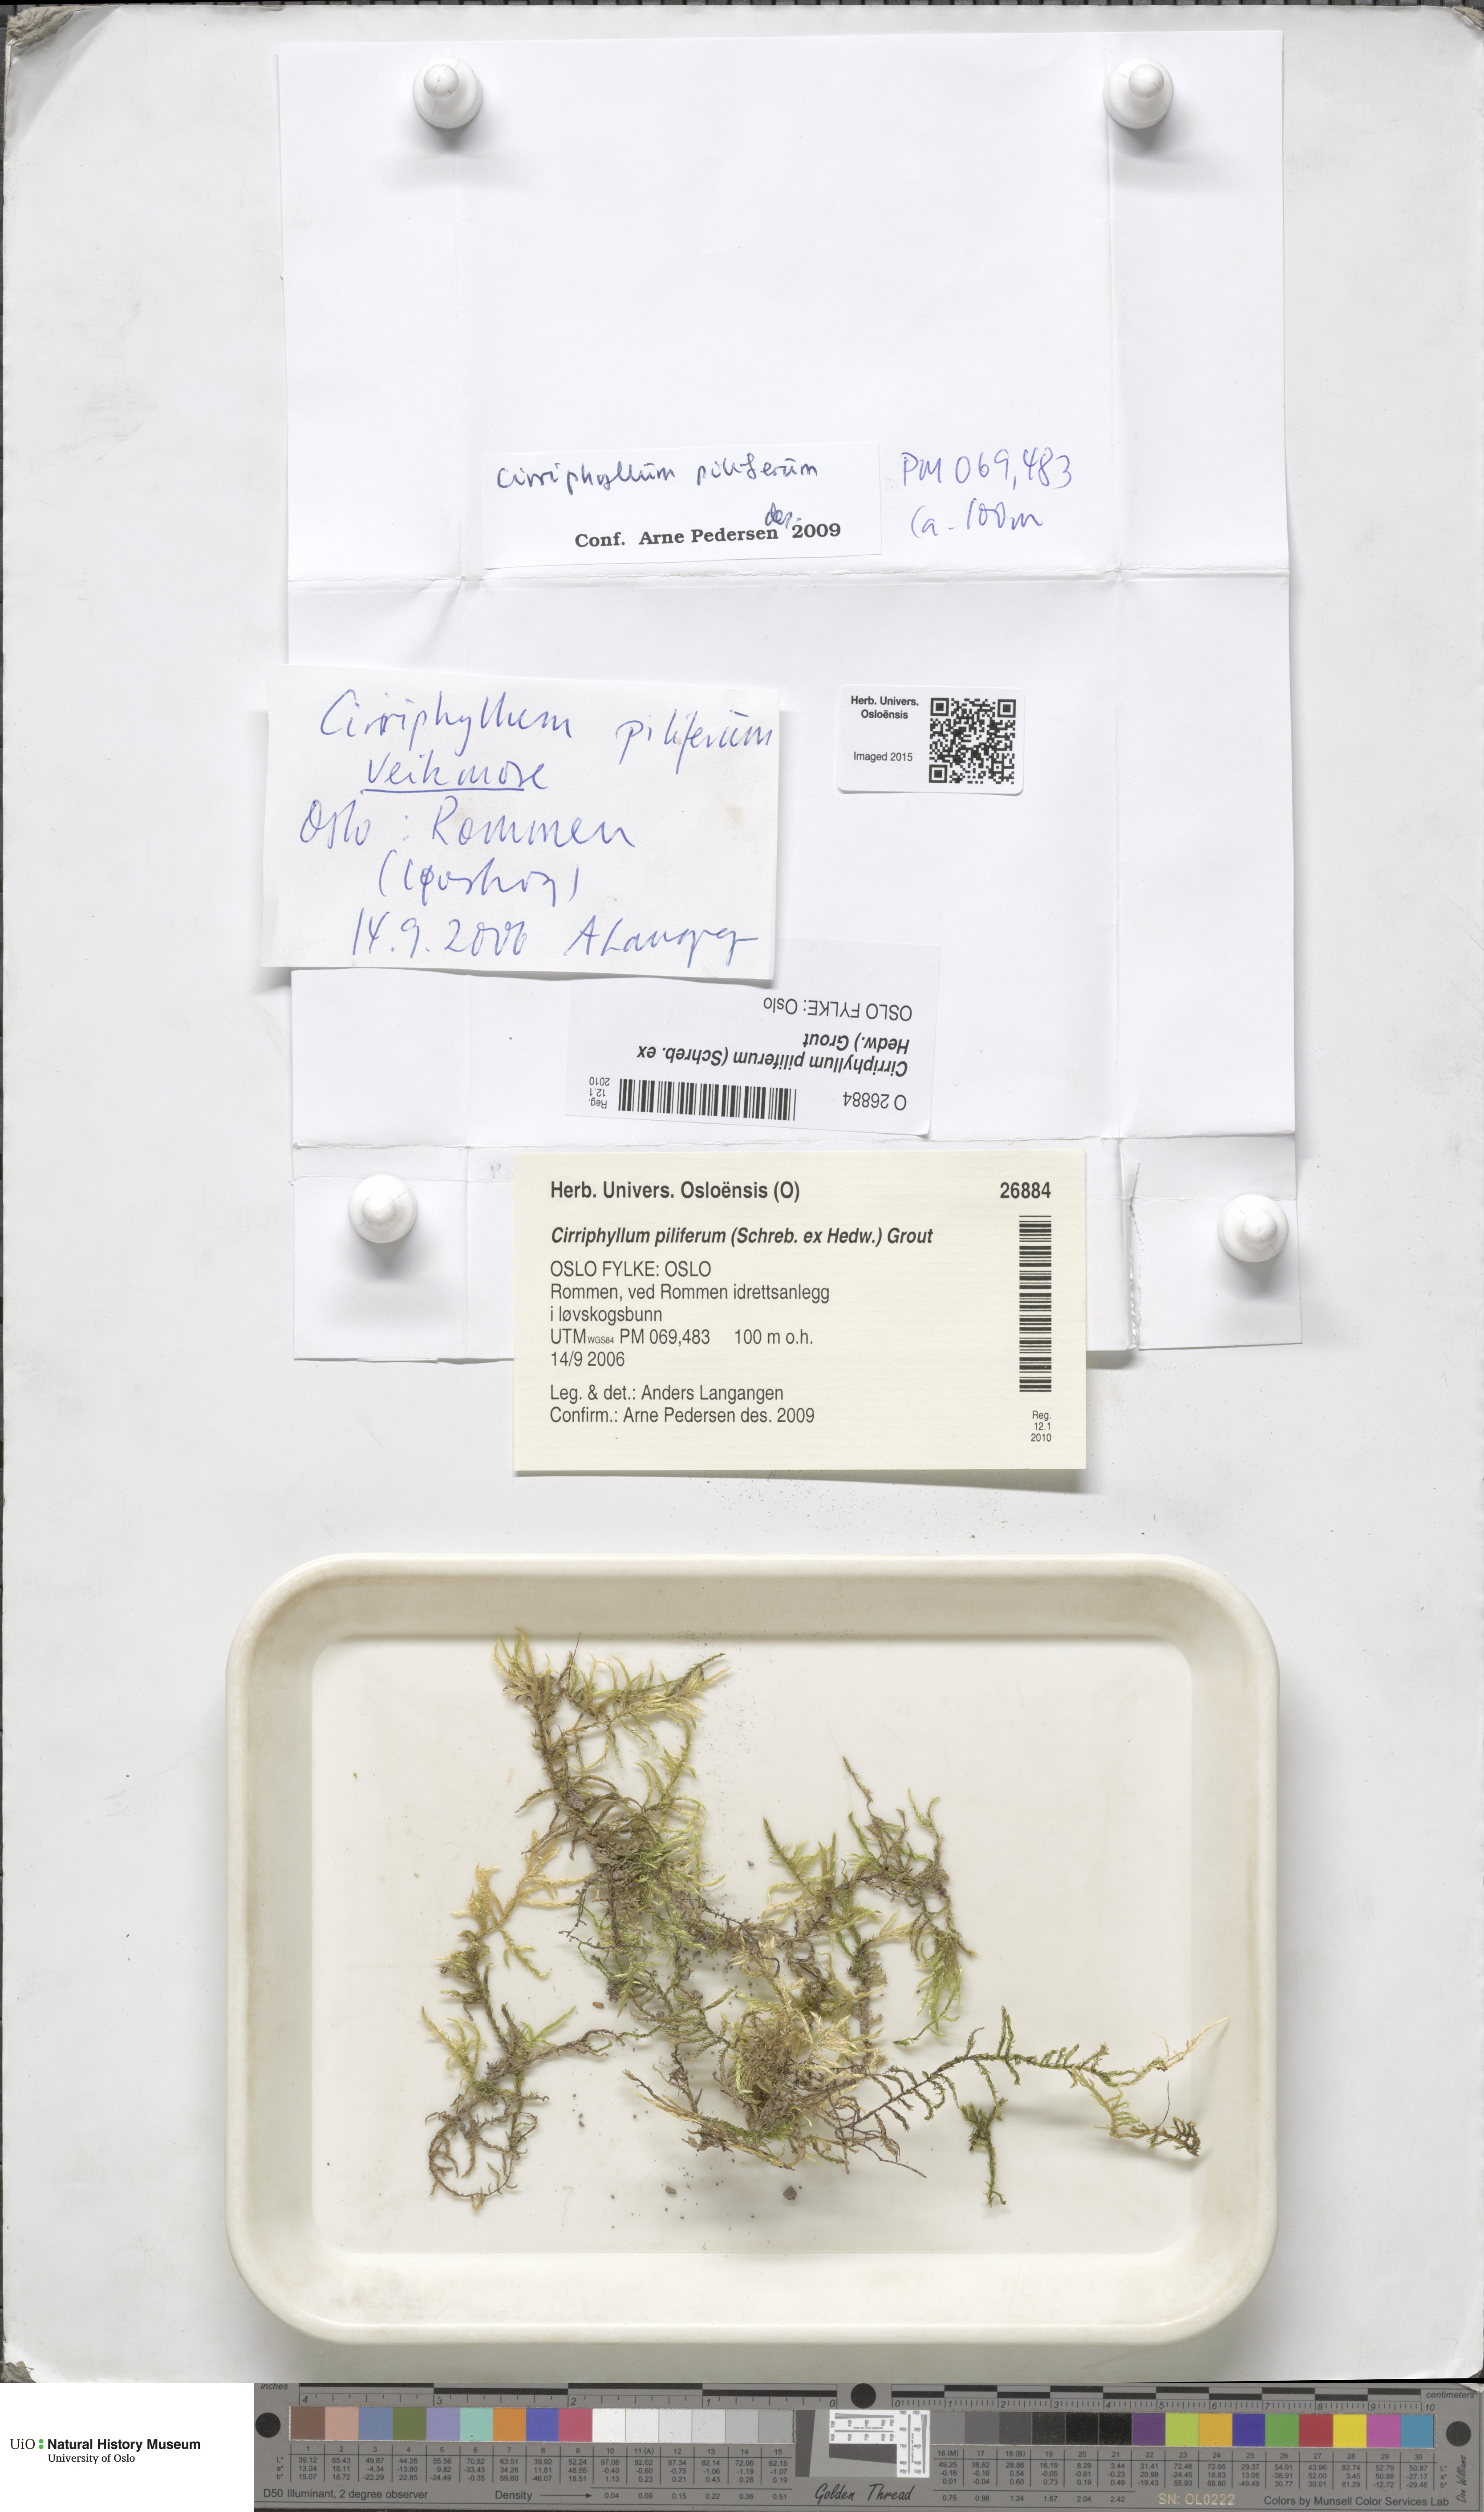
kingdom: Plantae
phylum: Bryophyta
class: Bryopsida
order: Hypnales
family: Brachytheciaceae
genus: Cirriphyllum
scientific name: Cirriphyllum piliferum
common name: Hair-pointed moss
